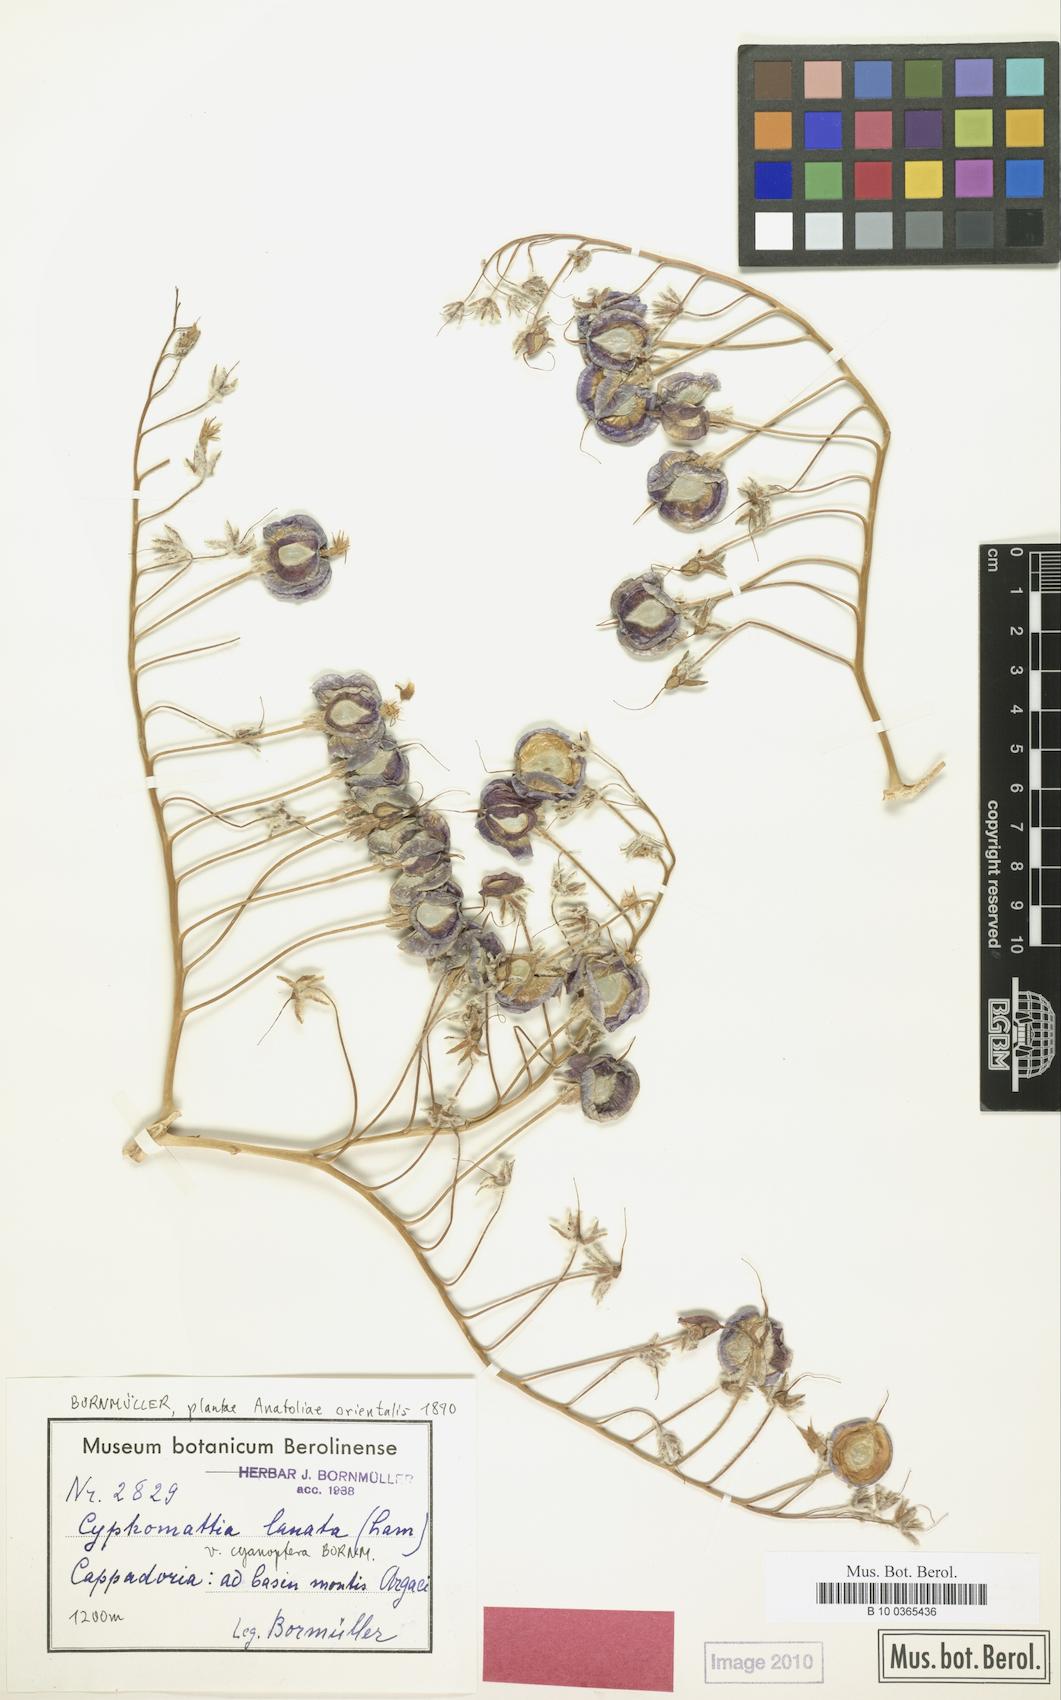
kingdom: Plantae
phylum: Tracheophyta
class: Magnoliopsida
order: Boraginales
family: Boraginaceae
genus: Rindera
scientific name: Rindera lanata
